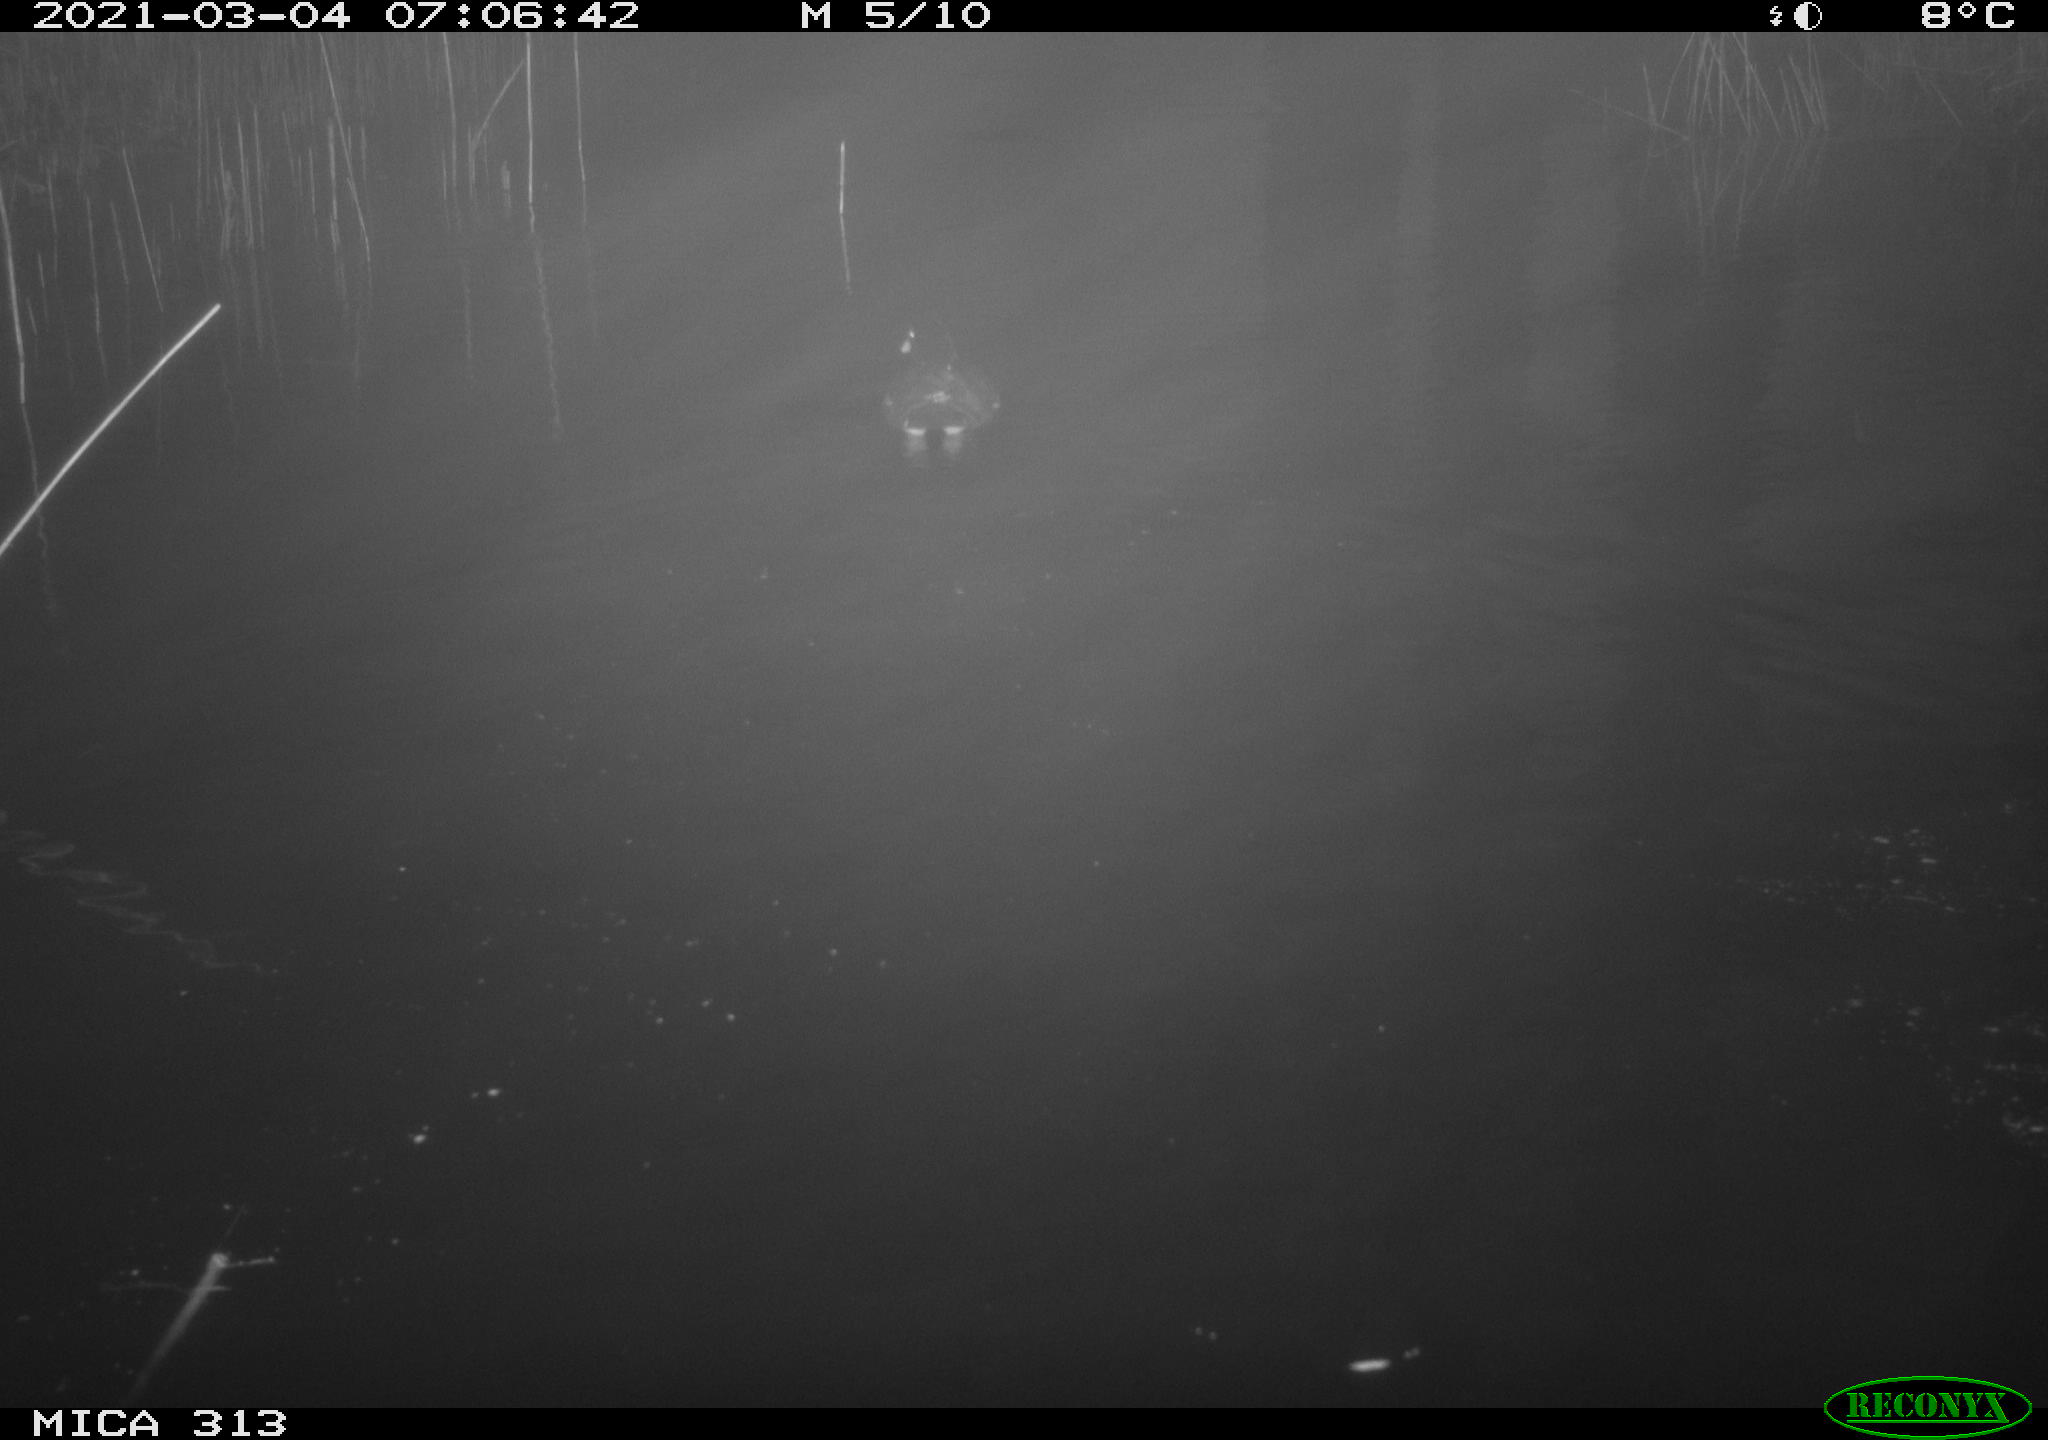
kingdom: Animalia
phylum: Chordata
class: Aves
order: Gruiformes
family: Rallidae
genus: Gallinula
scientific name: Gallinula chloropus
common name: Common moorhen
